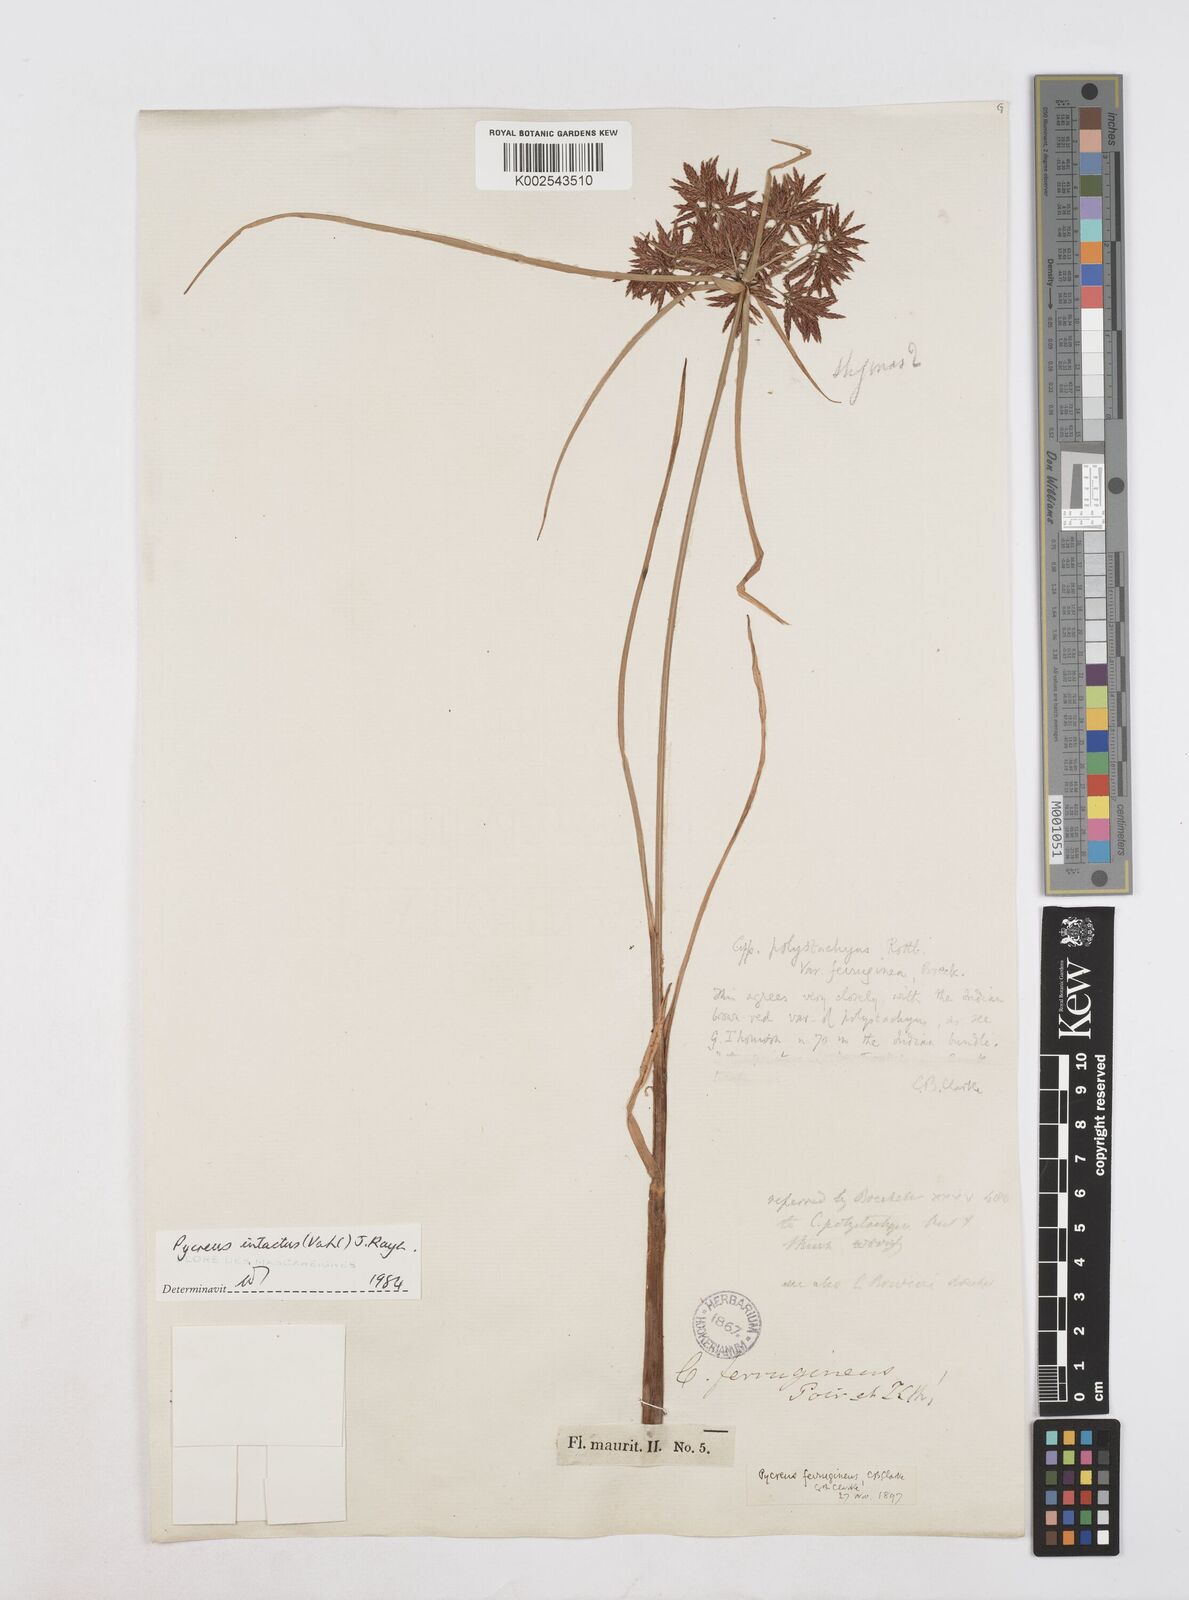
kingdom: Plantae
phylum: Tracheophyta
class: Liliopsida
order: Poales
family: Cyperaceae
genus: Cyperus
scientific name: Cyperus intactus
